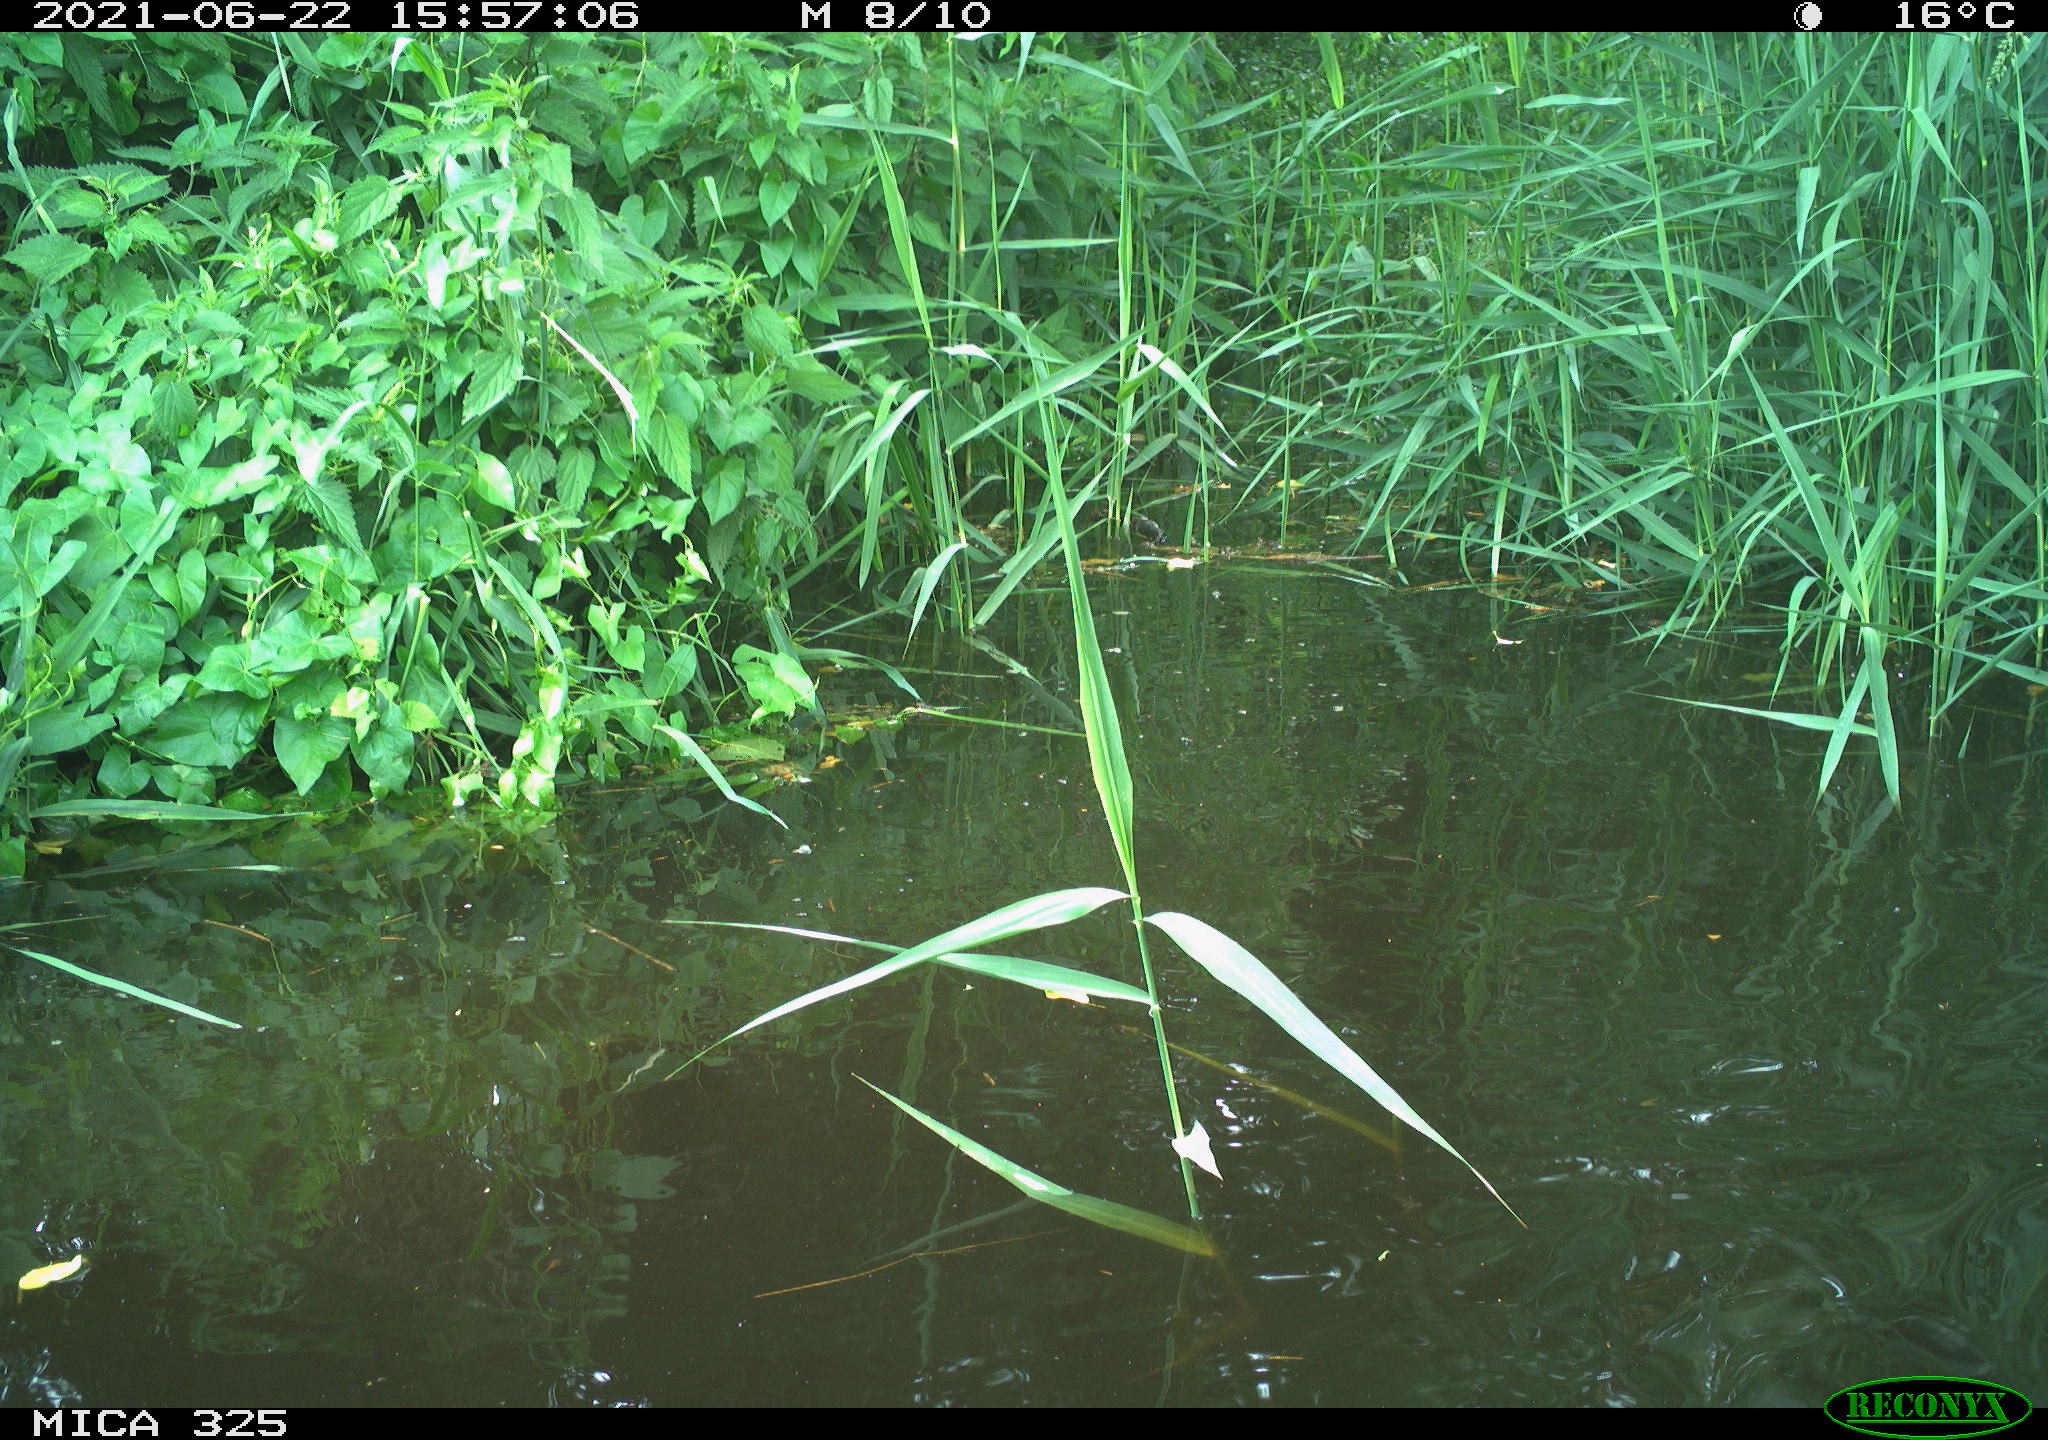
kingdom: Animalia
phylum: Chordata
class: Aves
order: Anseriformes
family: Anatidae
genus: Anas
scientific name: Anas platyrhynchos
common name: Mallard
